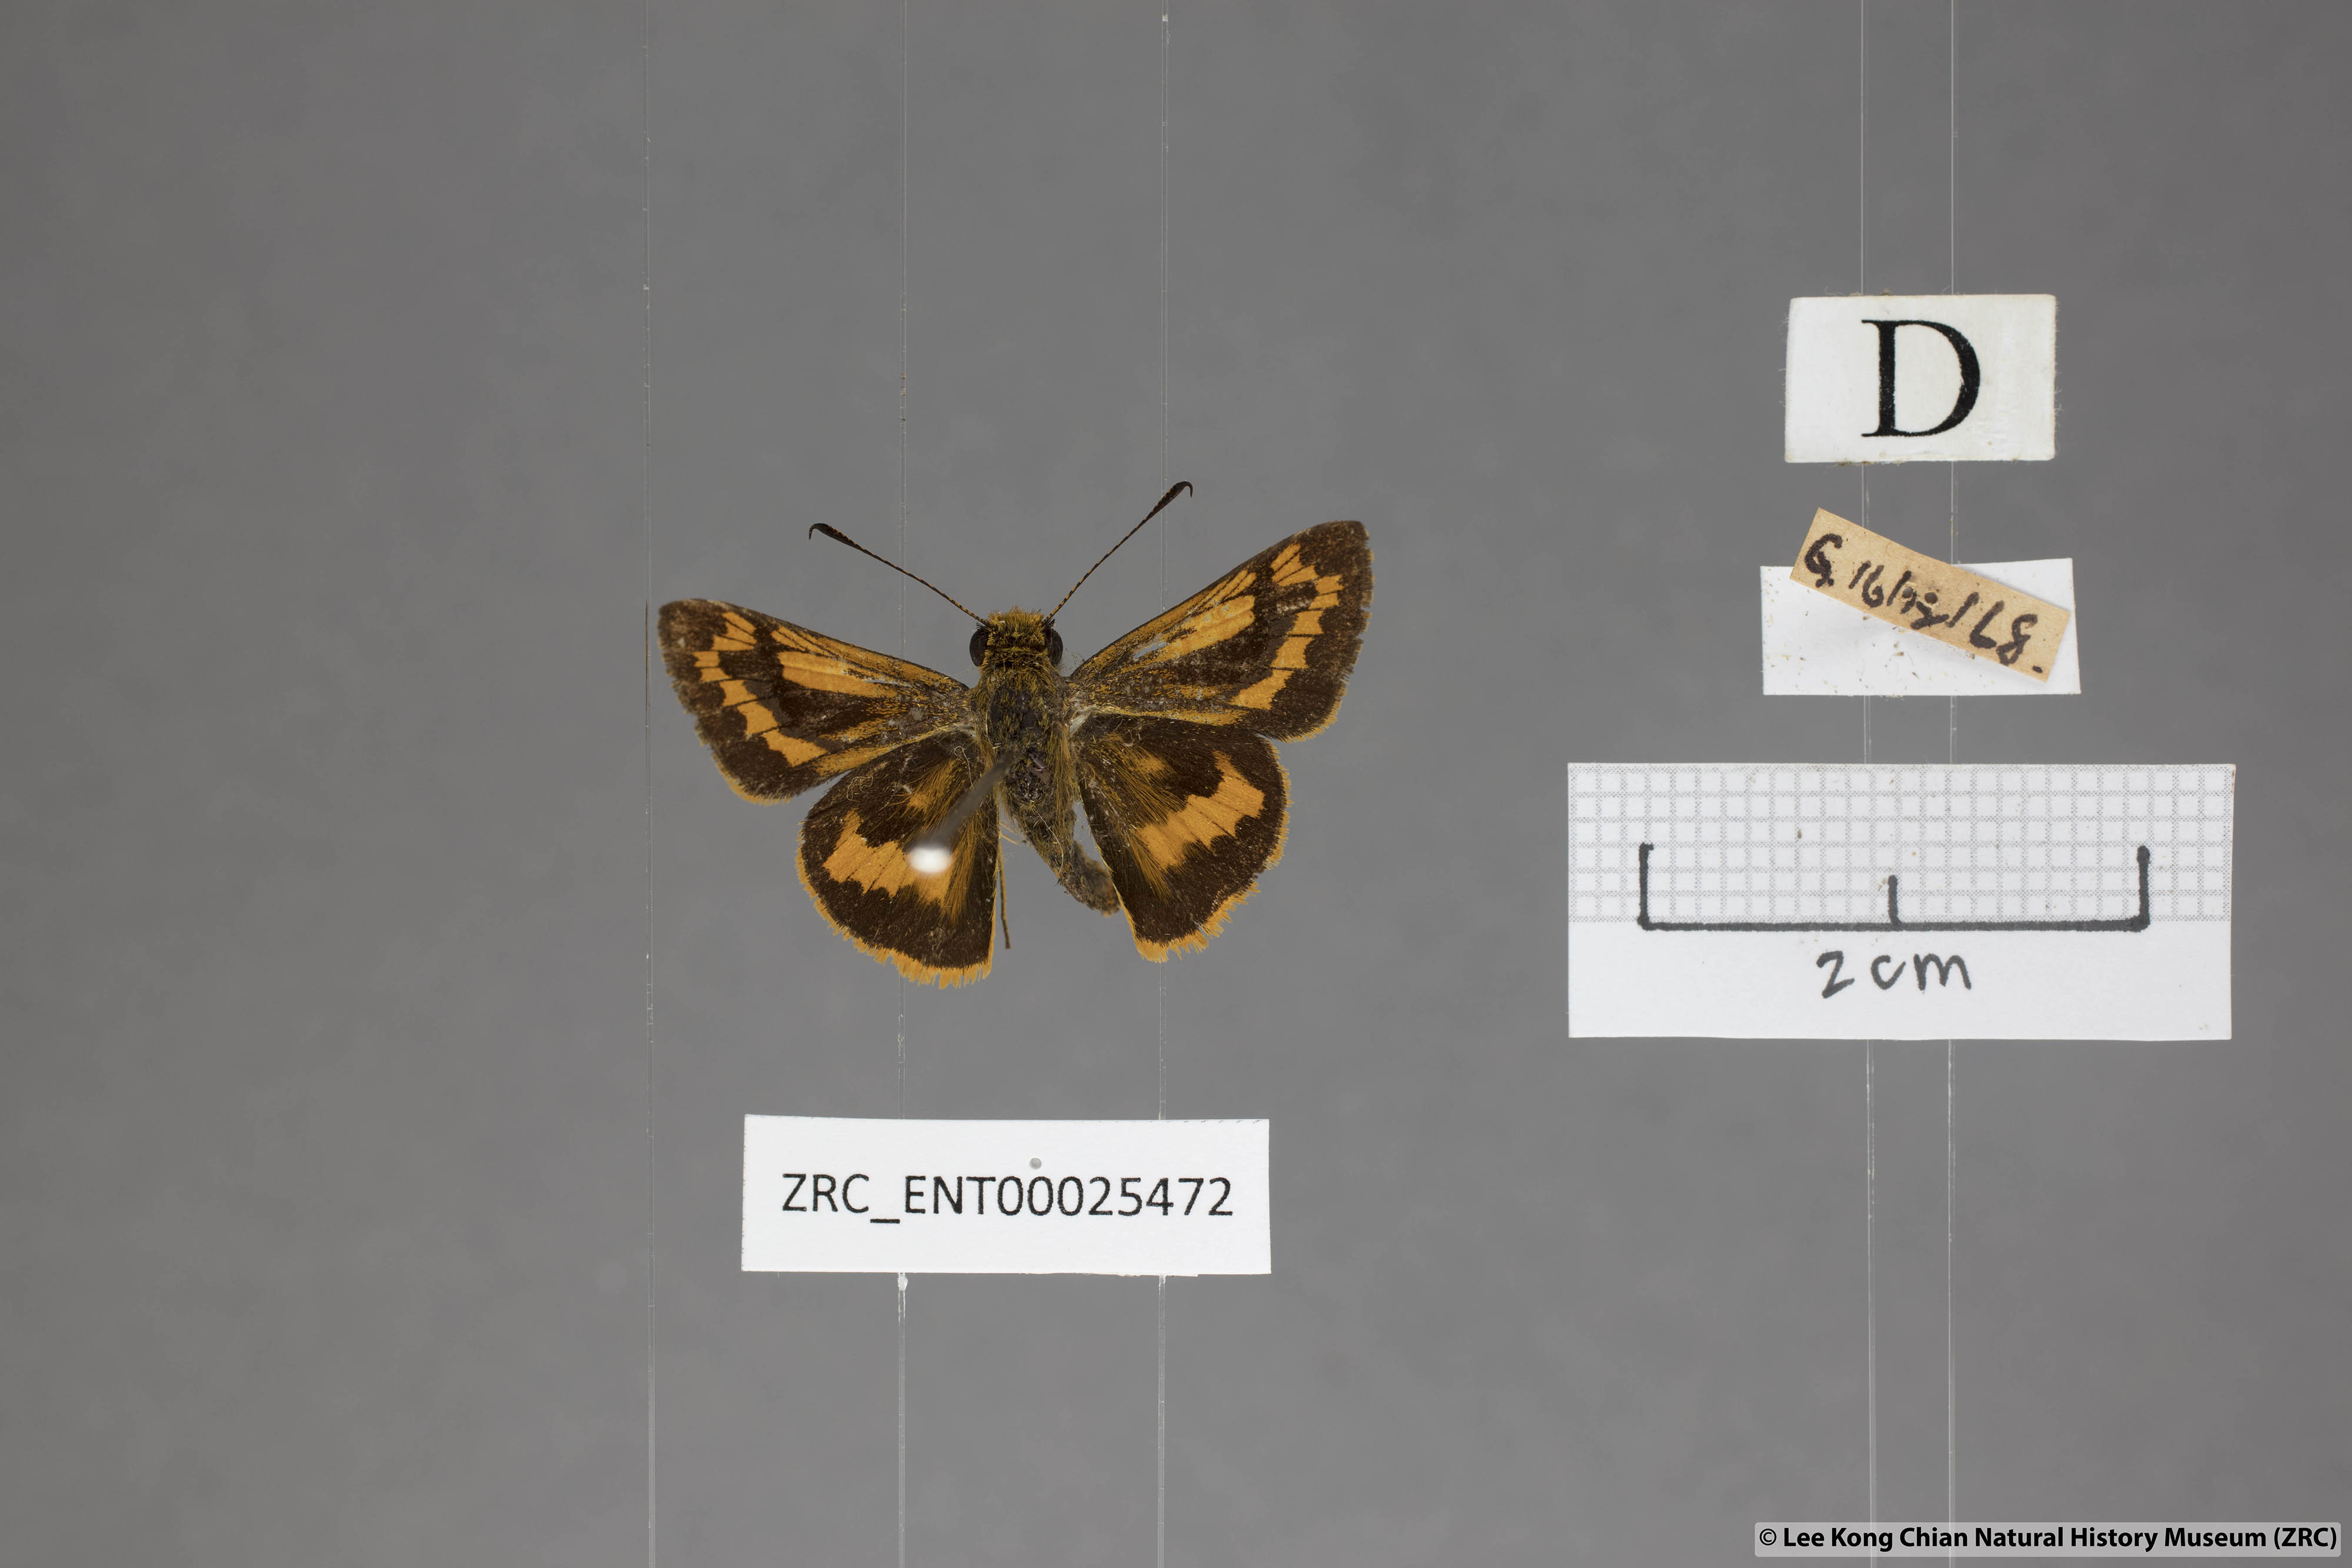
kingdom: Animalia
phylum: Arthropoda
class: Insecta
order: Lepidoptera
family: Hesperiidae
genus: Potanthus
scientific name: Potanthus rectifasciata
